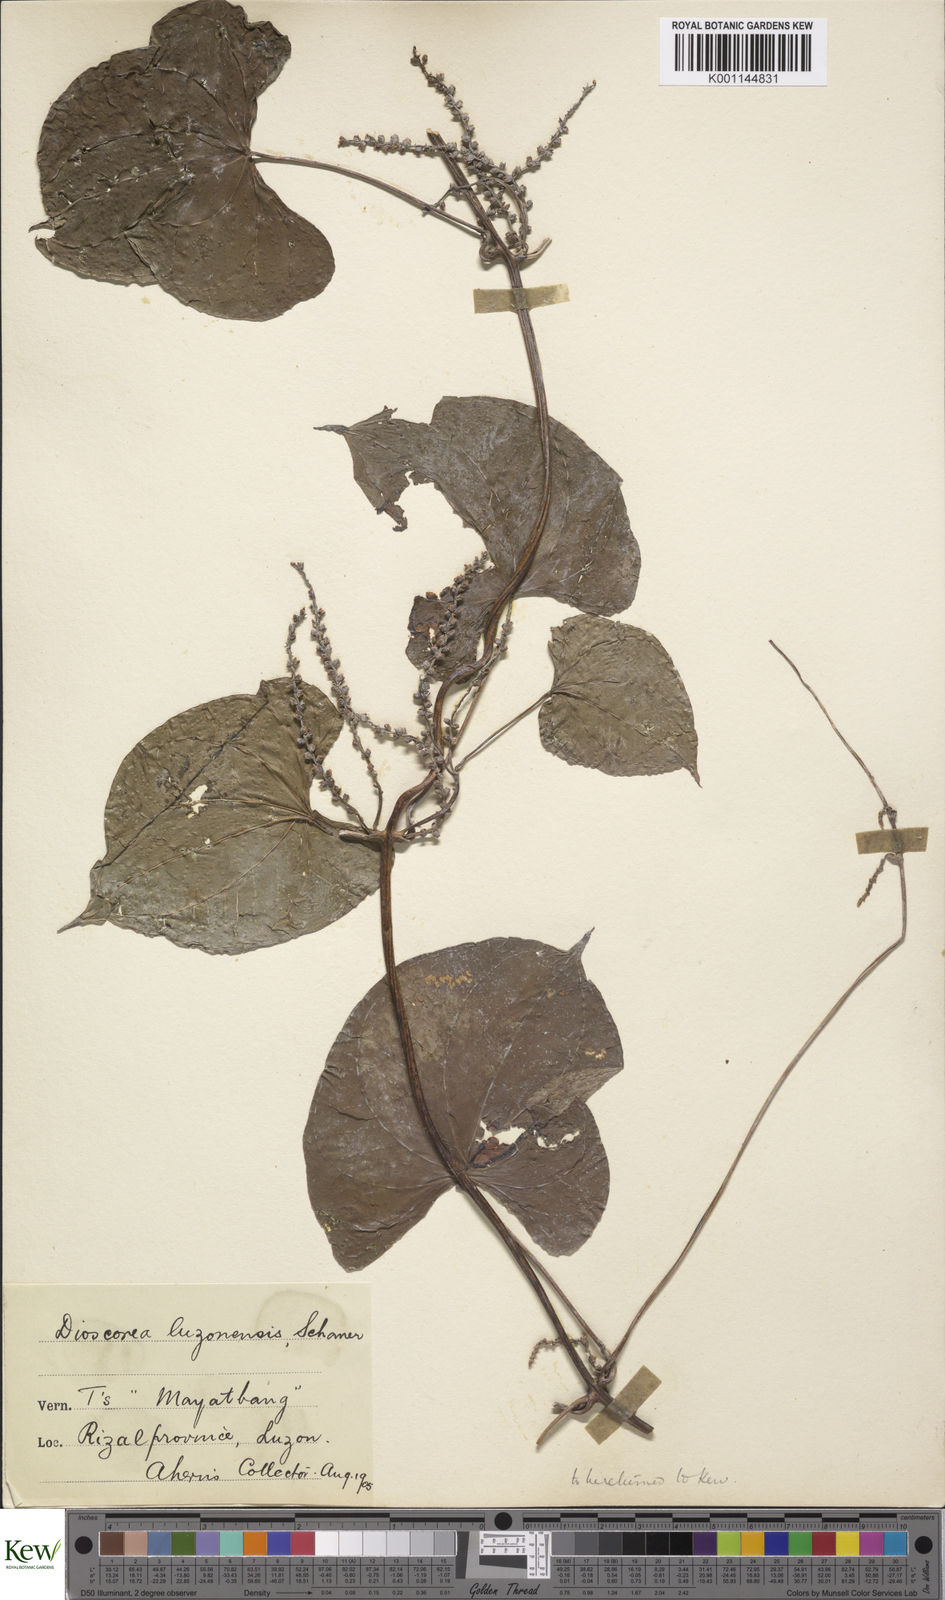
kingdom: Plantae
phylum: Tracheophyta
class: Liliopsida
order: Dioscoreales
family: Dioscoreaceae
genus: Dioscorea
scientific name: Dioscorea luzonensis
